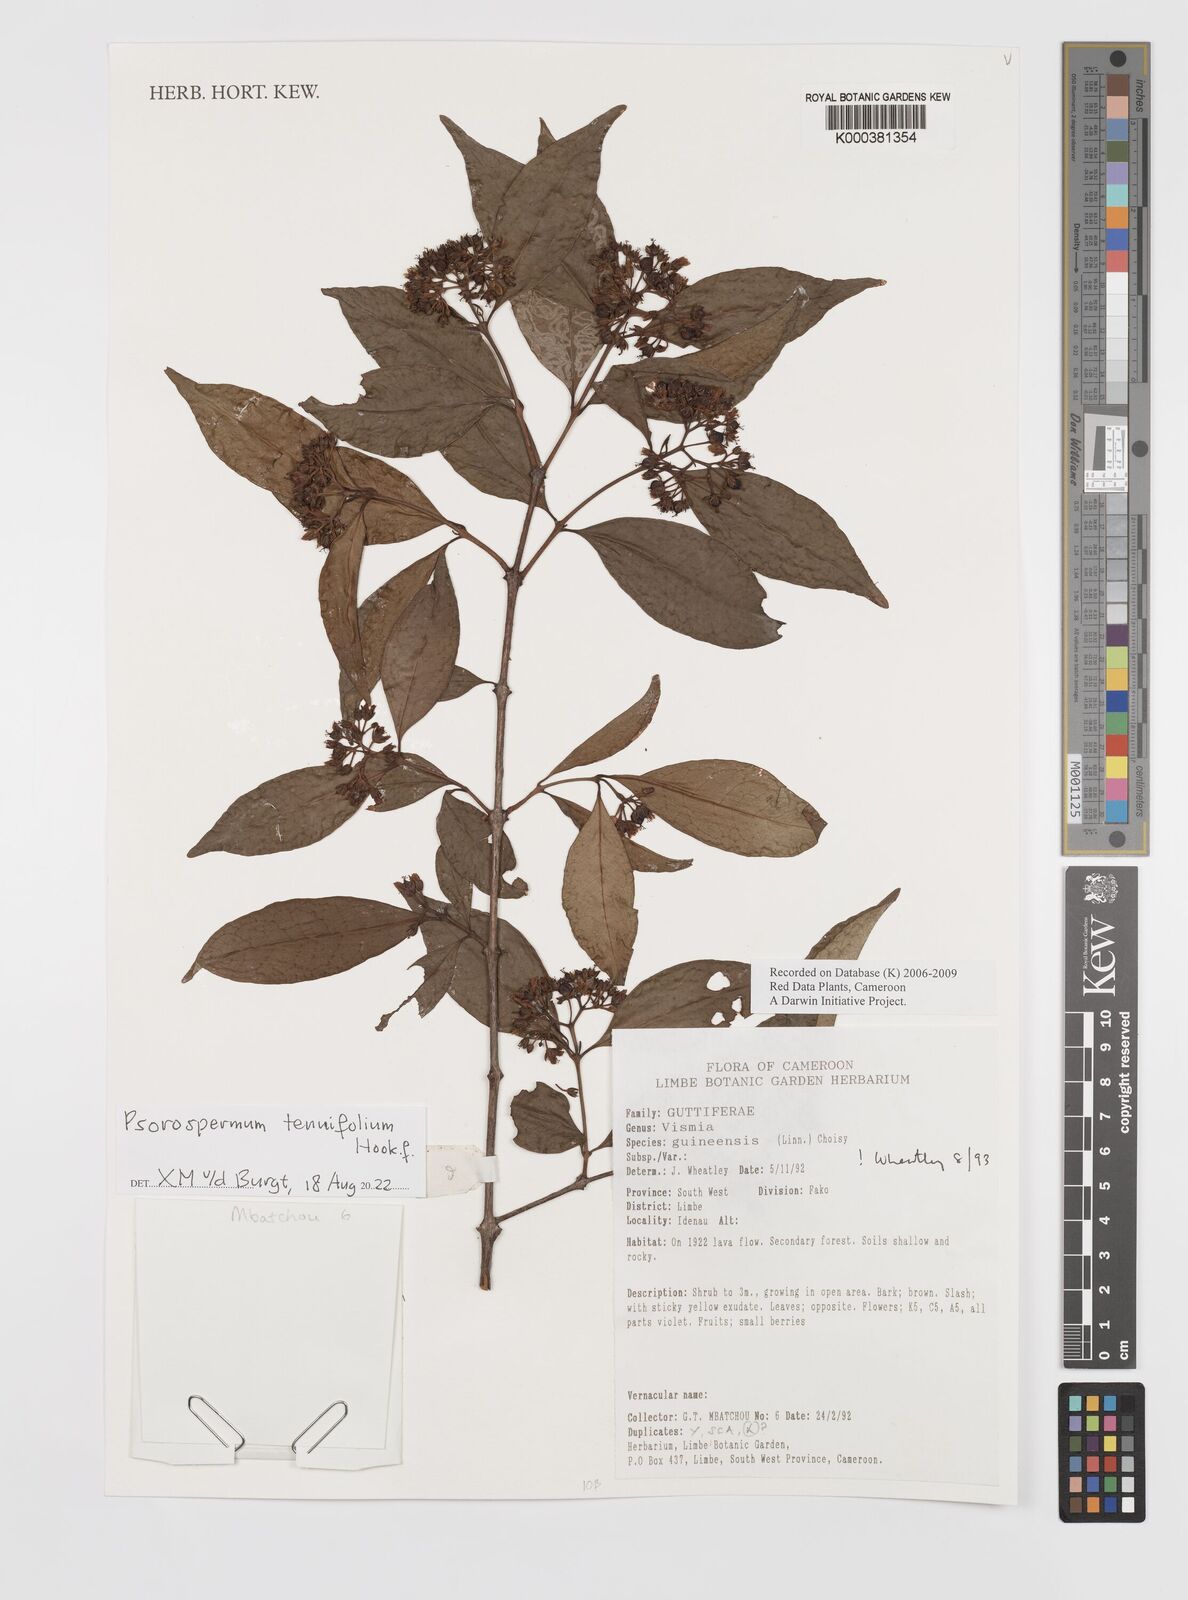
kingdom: Plantae
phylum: Tracheophyta
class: Magnoliopsida
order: Malpighiales
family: Hypericaceae
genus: Psorospermum
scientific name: Psorospermum guineense
